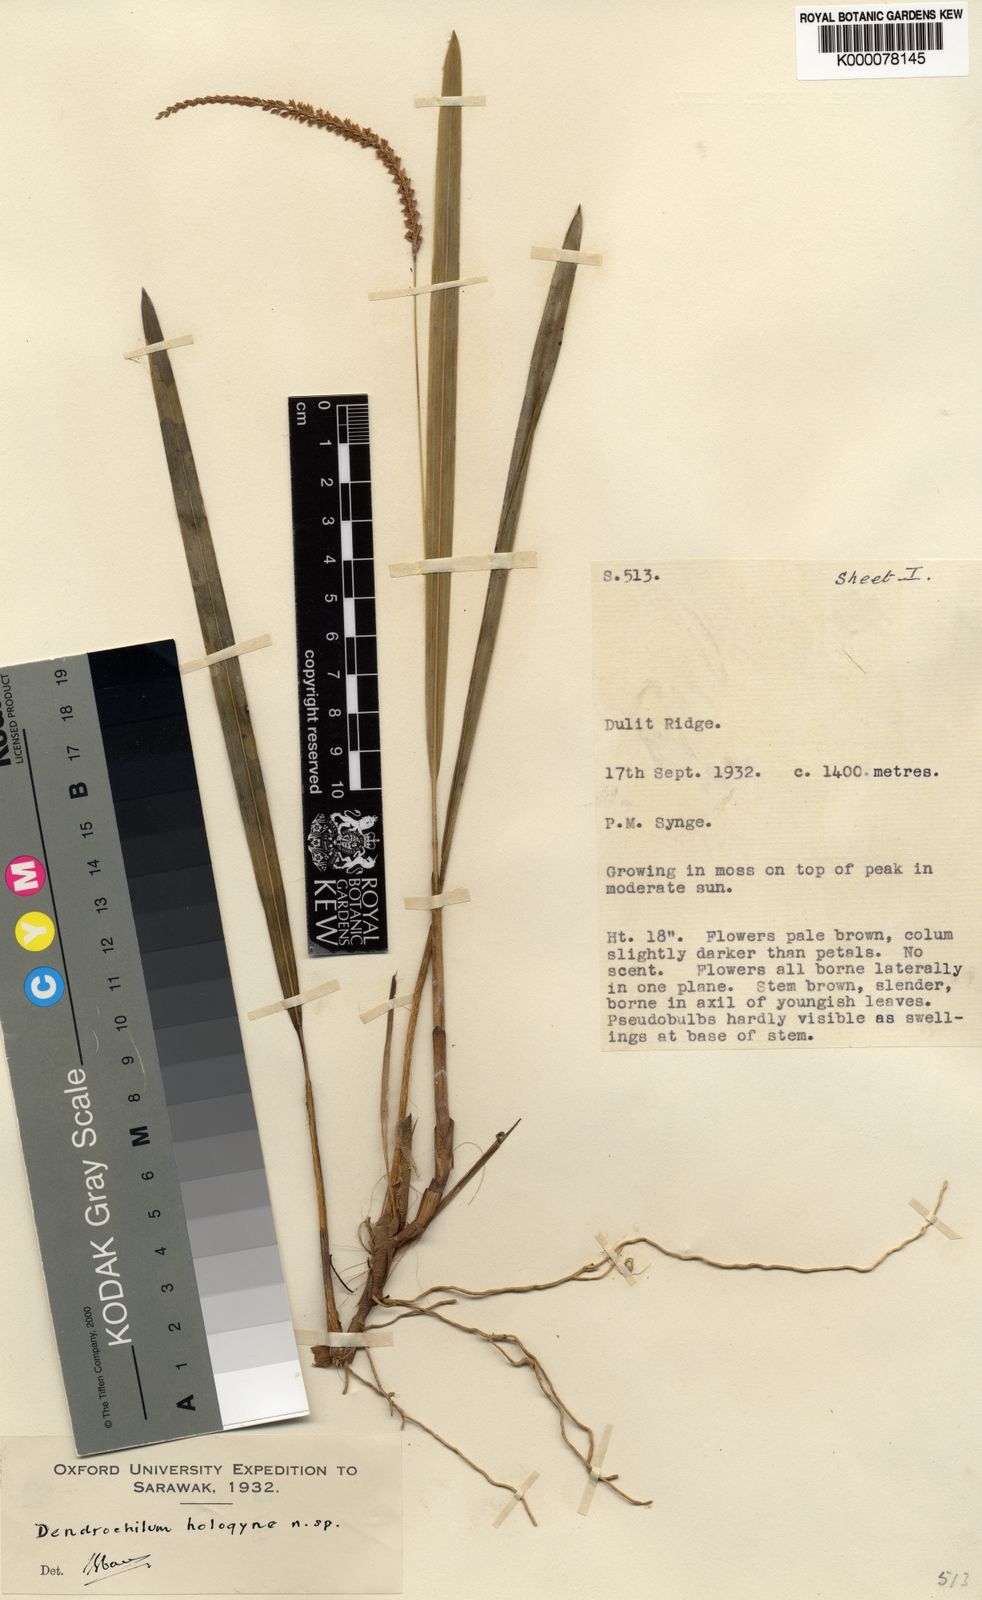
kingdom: Plantae
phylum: Tracheophyta
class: Liliopsida
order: Asparagales
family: Orchidaceae
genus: Coelogyne
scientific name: Coelogyne hologyne
